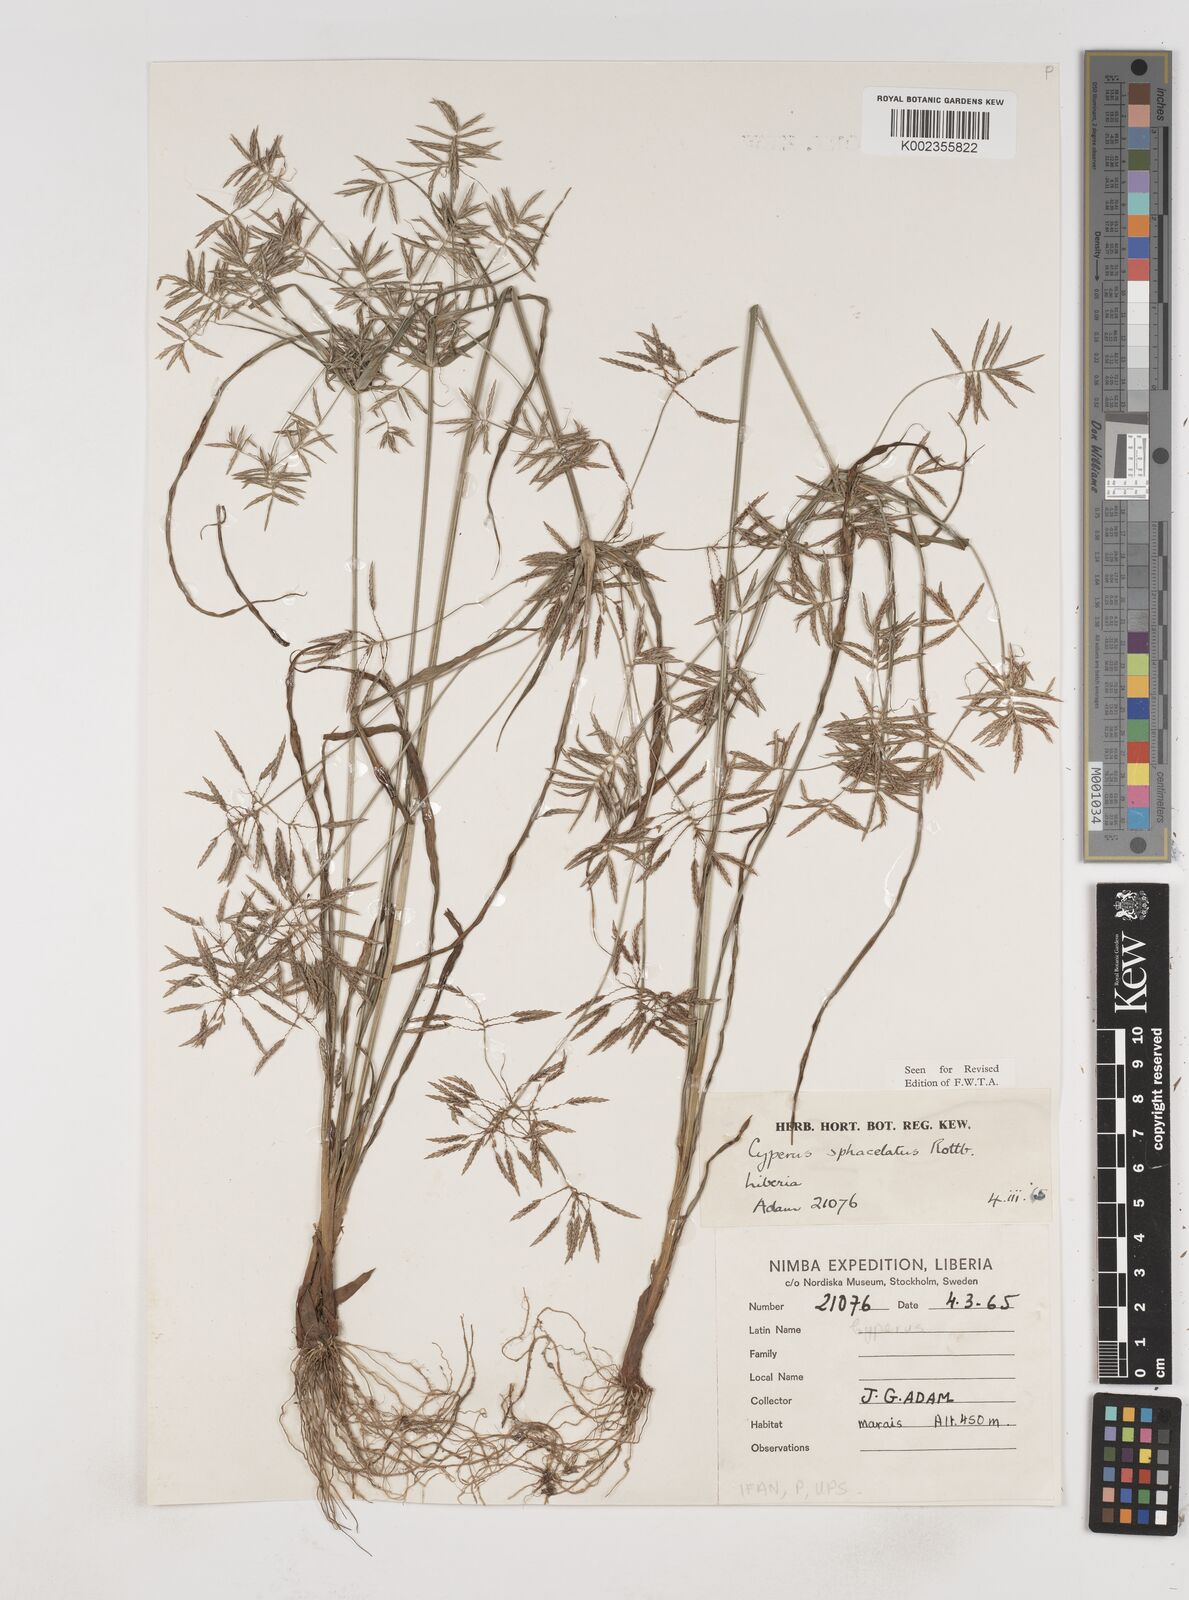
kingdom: Plantae
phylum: Tracheophyta
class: Liliopsida
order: Poales
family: Cyperaceae
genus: Cyperus
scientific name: Cyperus sphacelatus
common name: Roadside flatsedge
